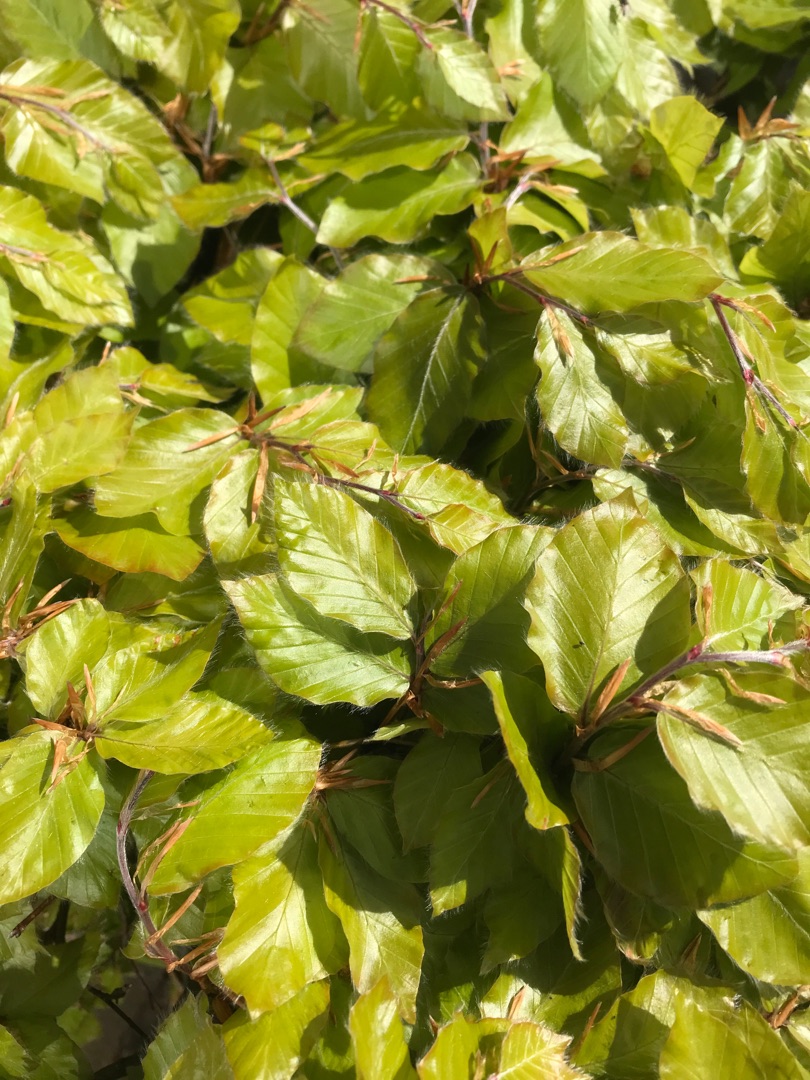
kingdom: Plantae
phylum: Tracheophyta
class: Magnoliopsida
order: Fagales
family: Fagaceae
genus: Fagus
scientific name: Fagus sylvatica
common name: Bøg
